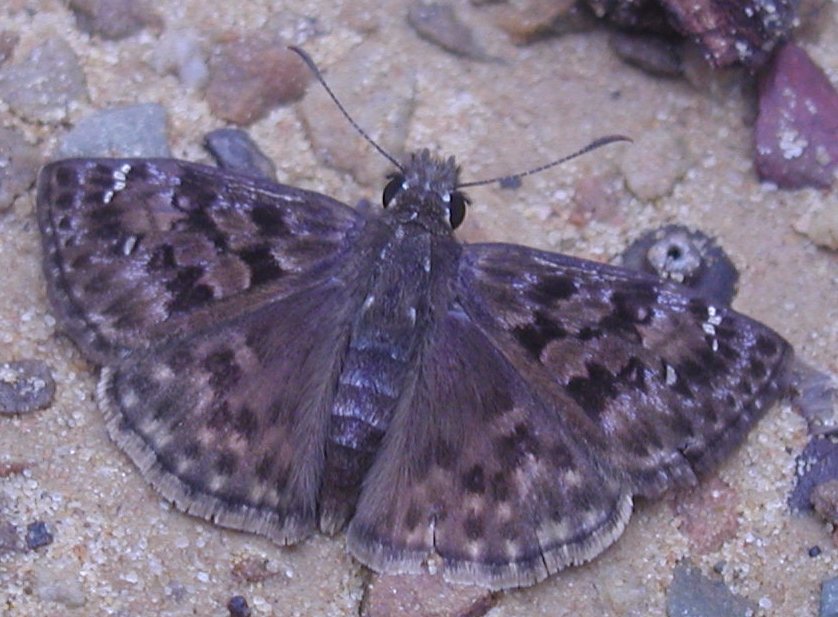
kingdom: Animalia
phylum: Arthropoda
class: Insecta
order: Lepidoptera
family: Hesperiidae
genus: Erynnis
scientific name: Erynnis martialis
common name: Mottled Duskywing
